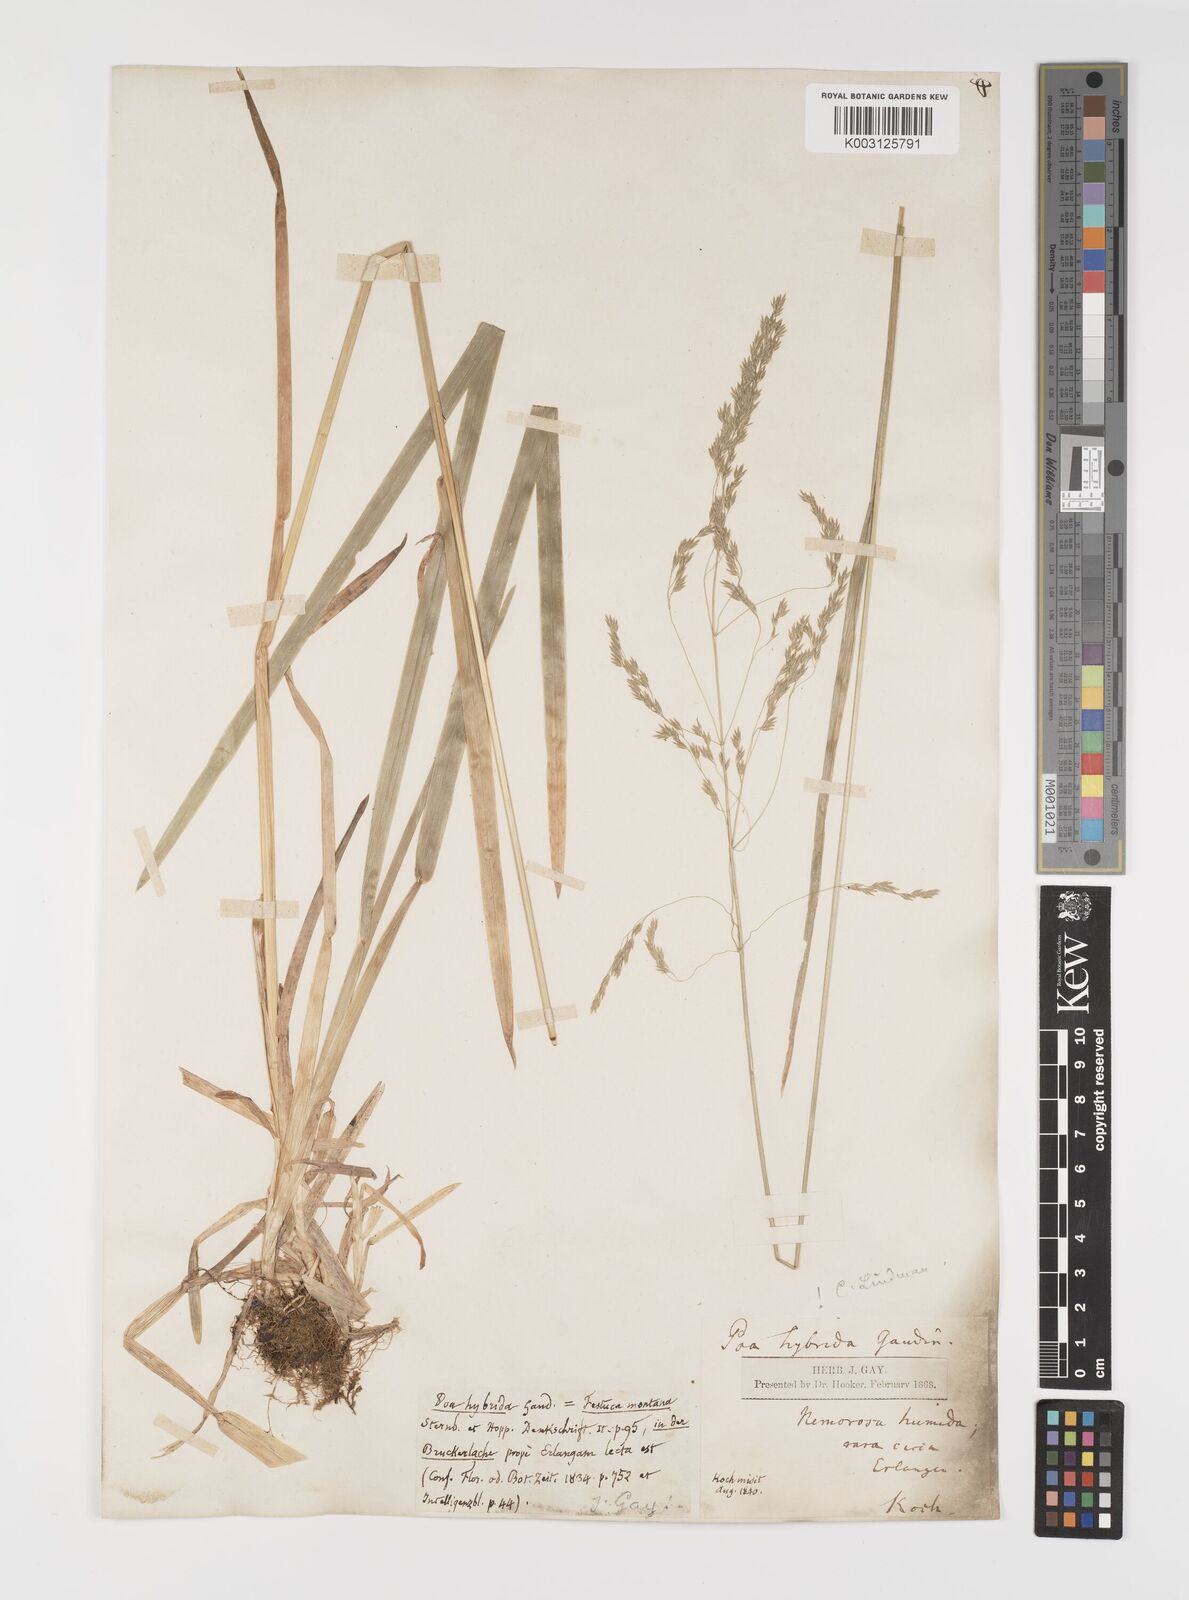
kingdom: Plantae
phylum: Tracheophyta
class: Liliopsida
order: Poales
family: Poaceae
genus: Poa
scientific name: Poa hybrida
